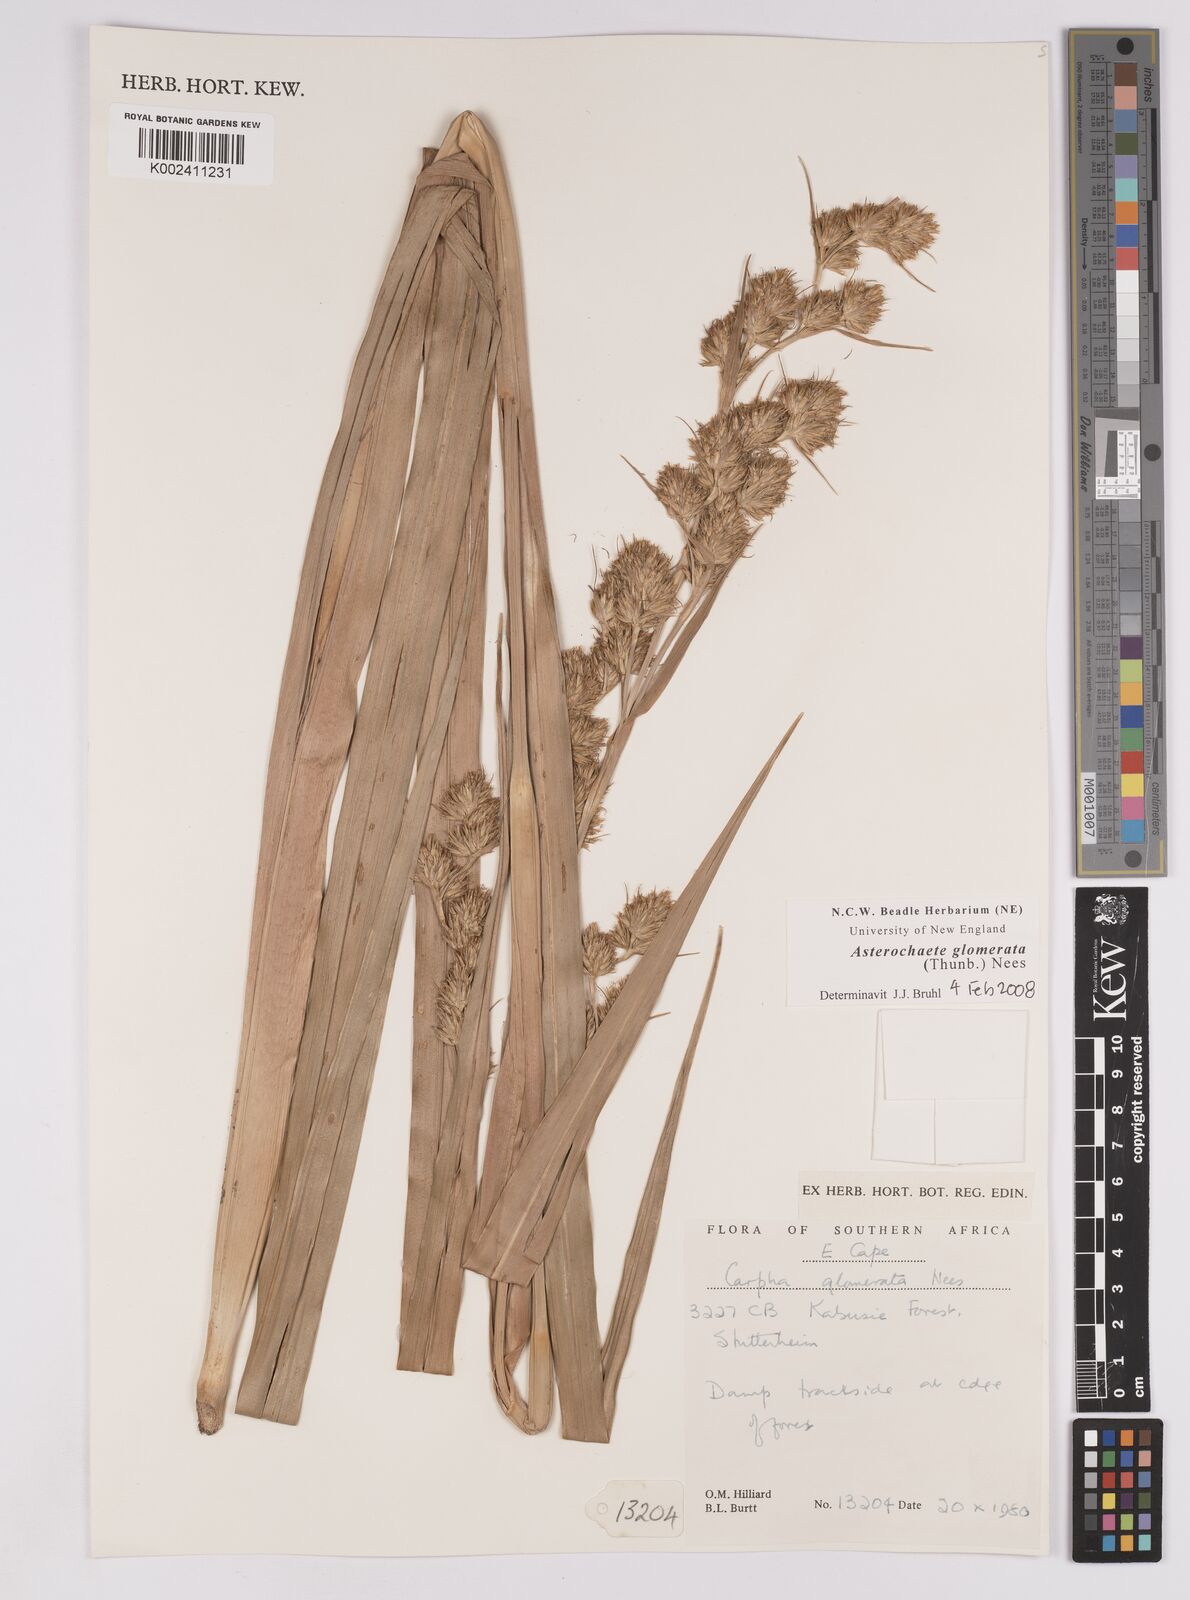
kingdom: Plantae
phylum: Tracheophyta
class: Liliopsida
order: Poales
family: Cyperaceae
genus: Carpha
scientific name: Carpha glomerata
